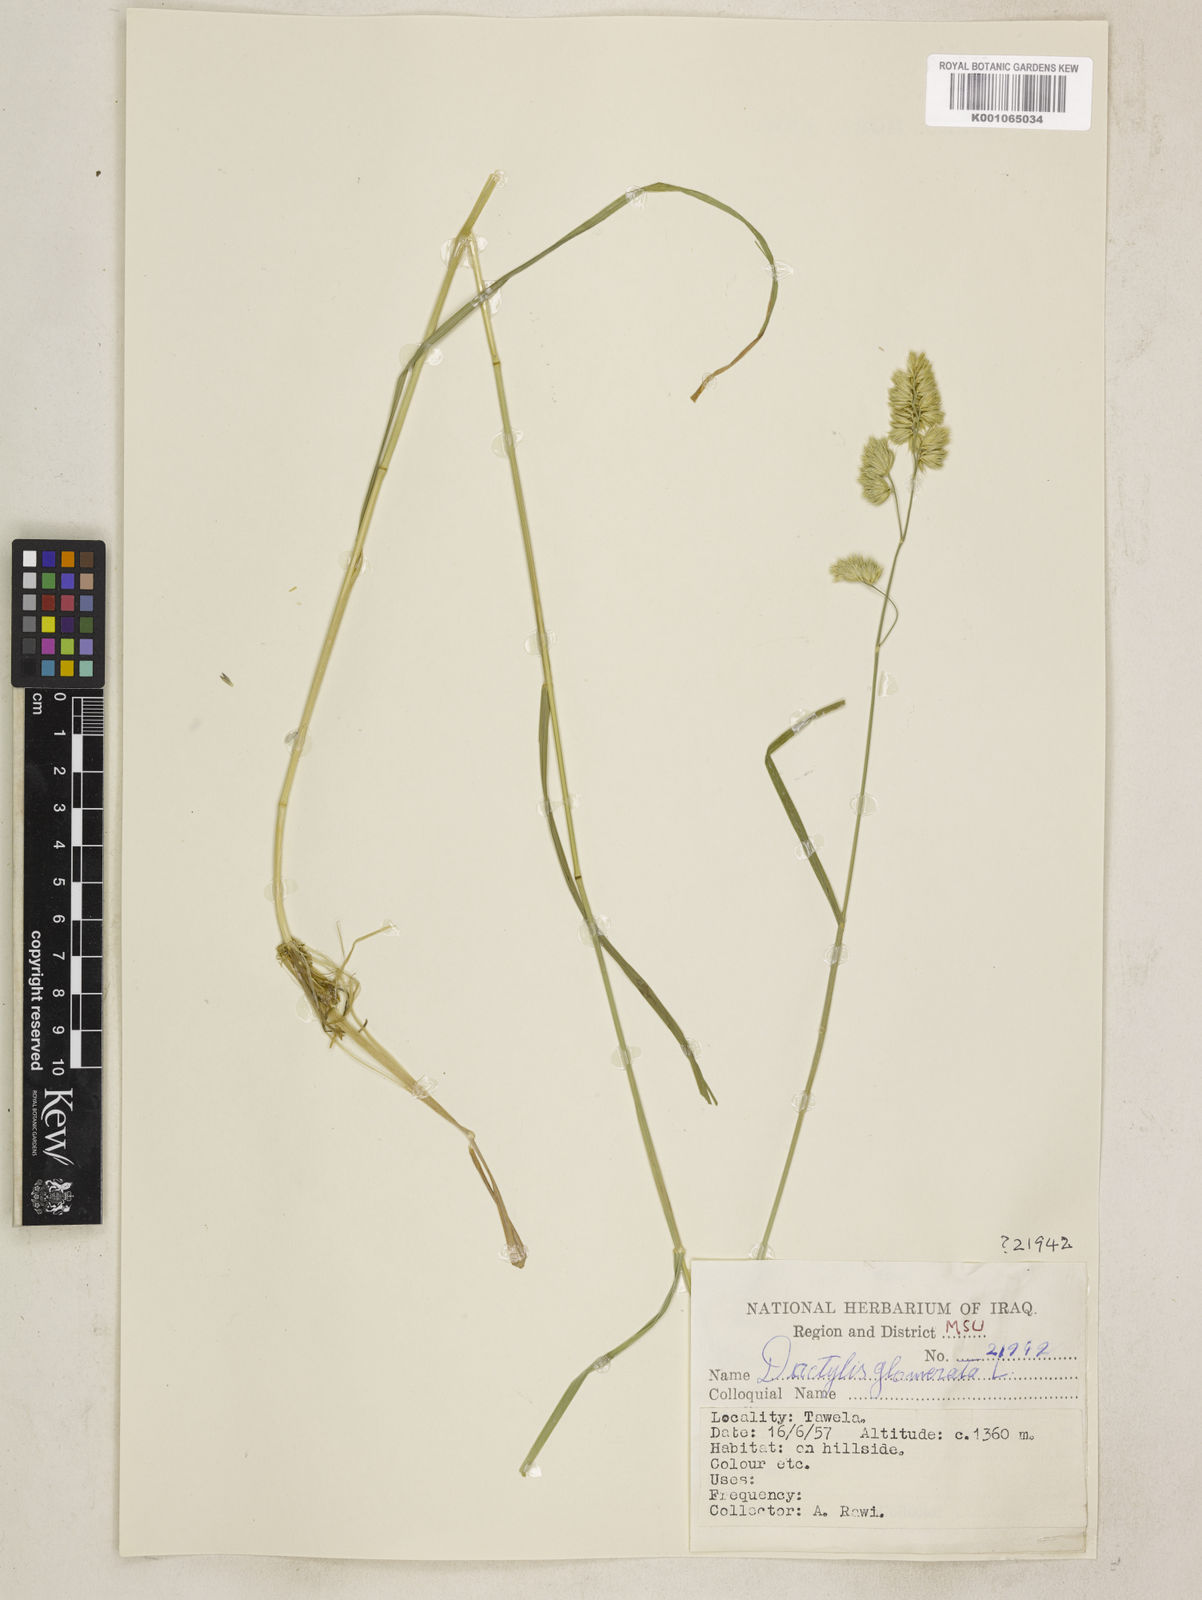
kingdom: Plantae
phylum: Tracheophyta
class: Liliopsida
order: Poales
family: Poaceae
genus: Dactylis
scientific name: Dactylis glomerata
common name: Orchardgrass
